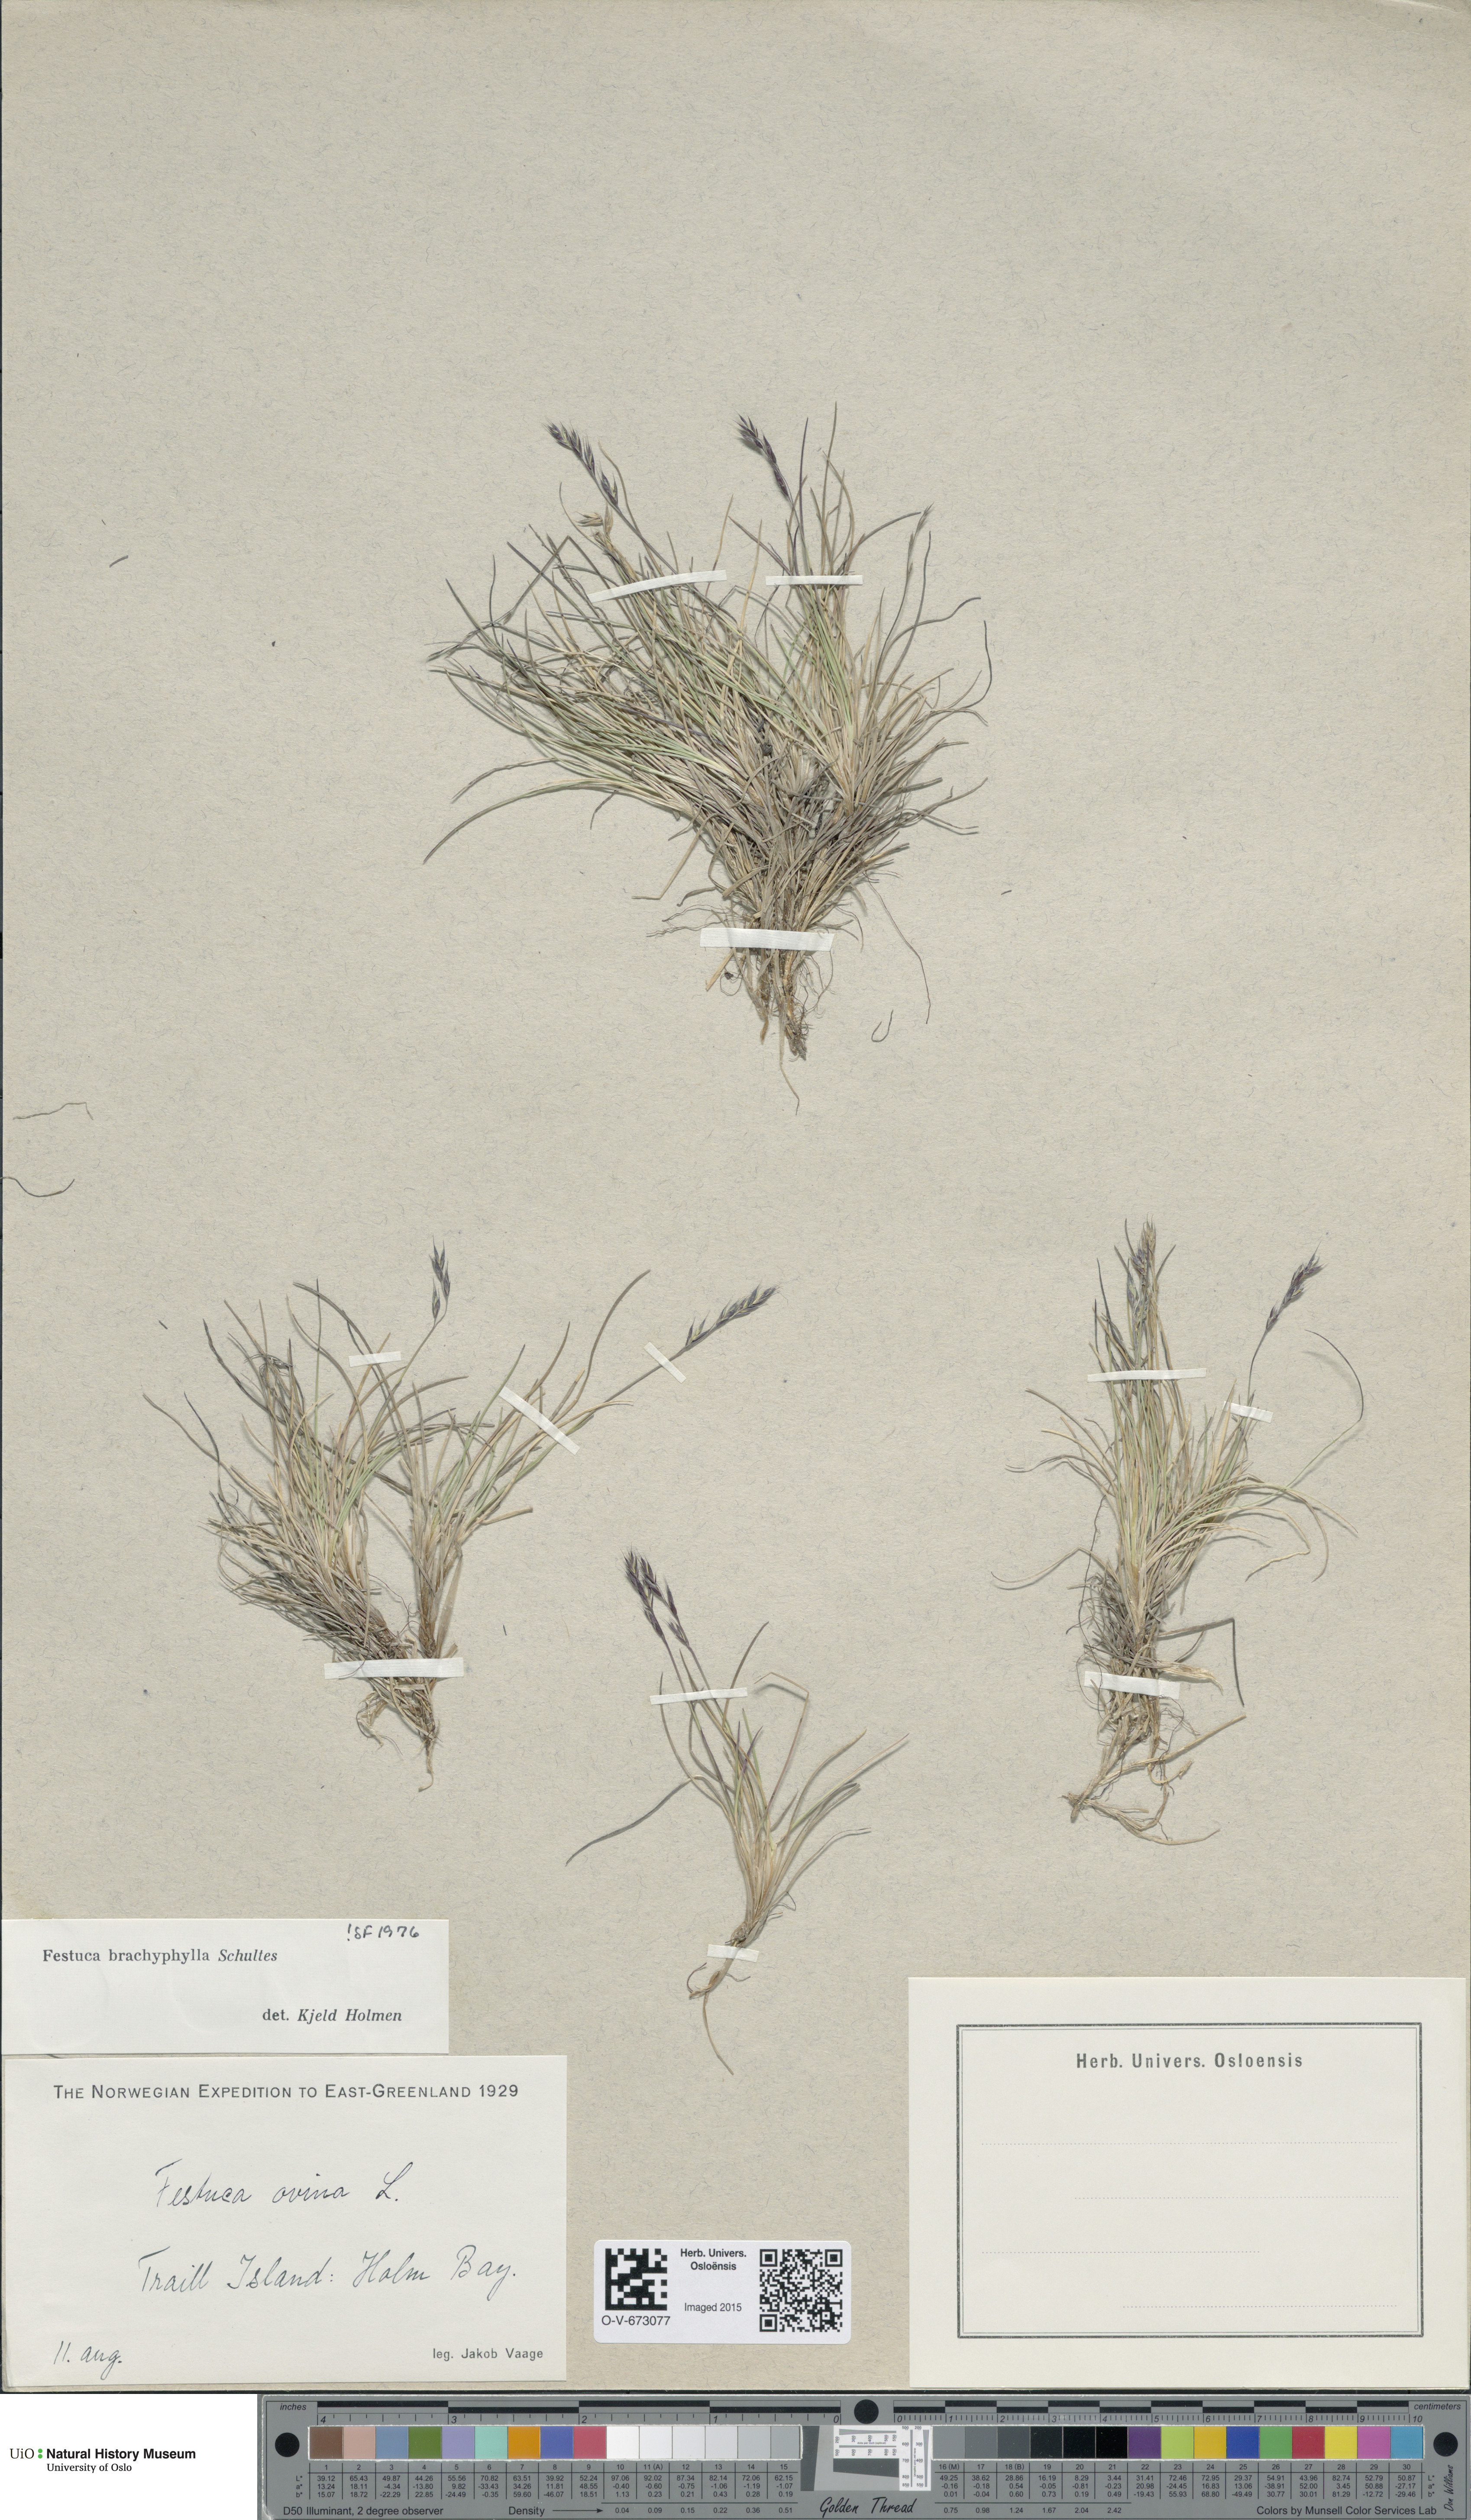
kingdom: Plantae
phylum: Tracheophyta
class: Liliopsida
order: Poales
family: Poaceae
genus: Festuca
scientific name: Festuca brachyphylla
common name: Alpine fescue
